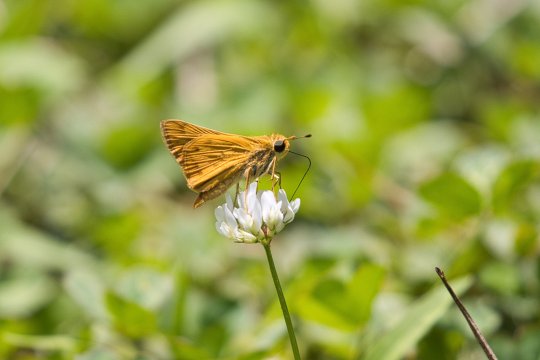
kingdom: Animalia
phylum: Arthropoda
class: Insecta
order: Lepidoptera
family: Hesperiidae
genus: Hylephila
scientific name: Hylephila phyleus
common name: Fiery Skipper
